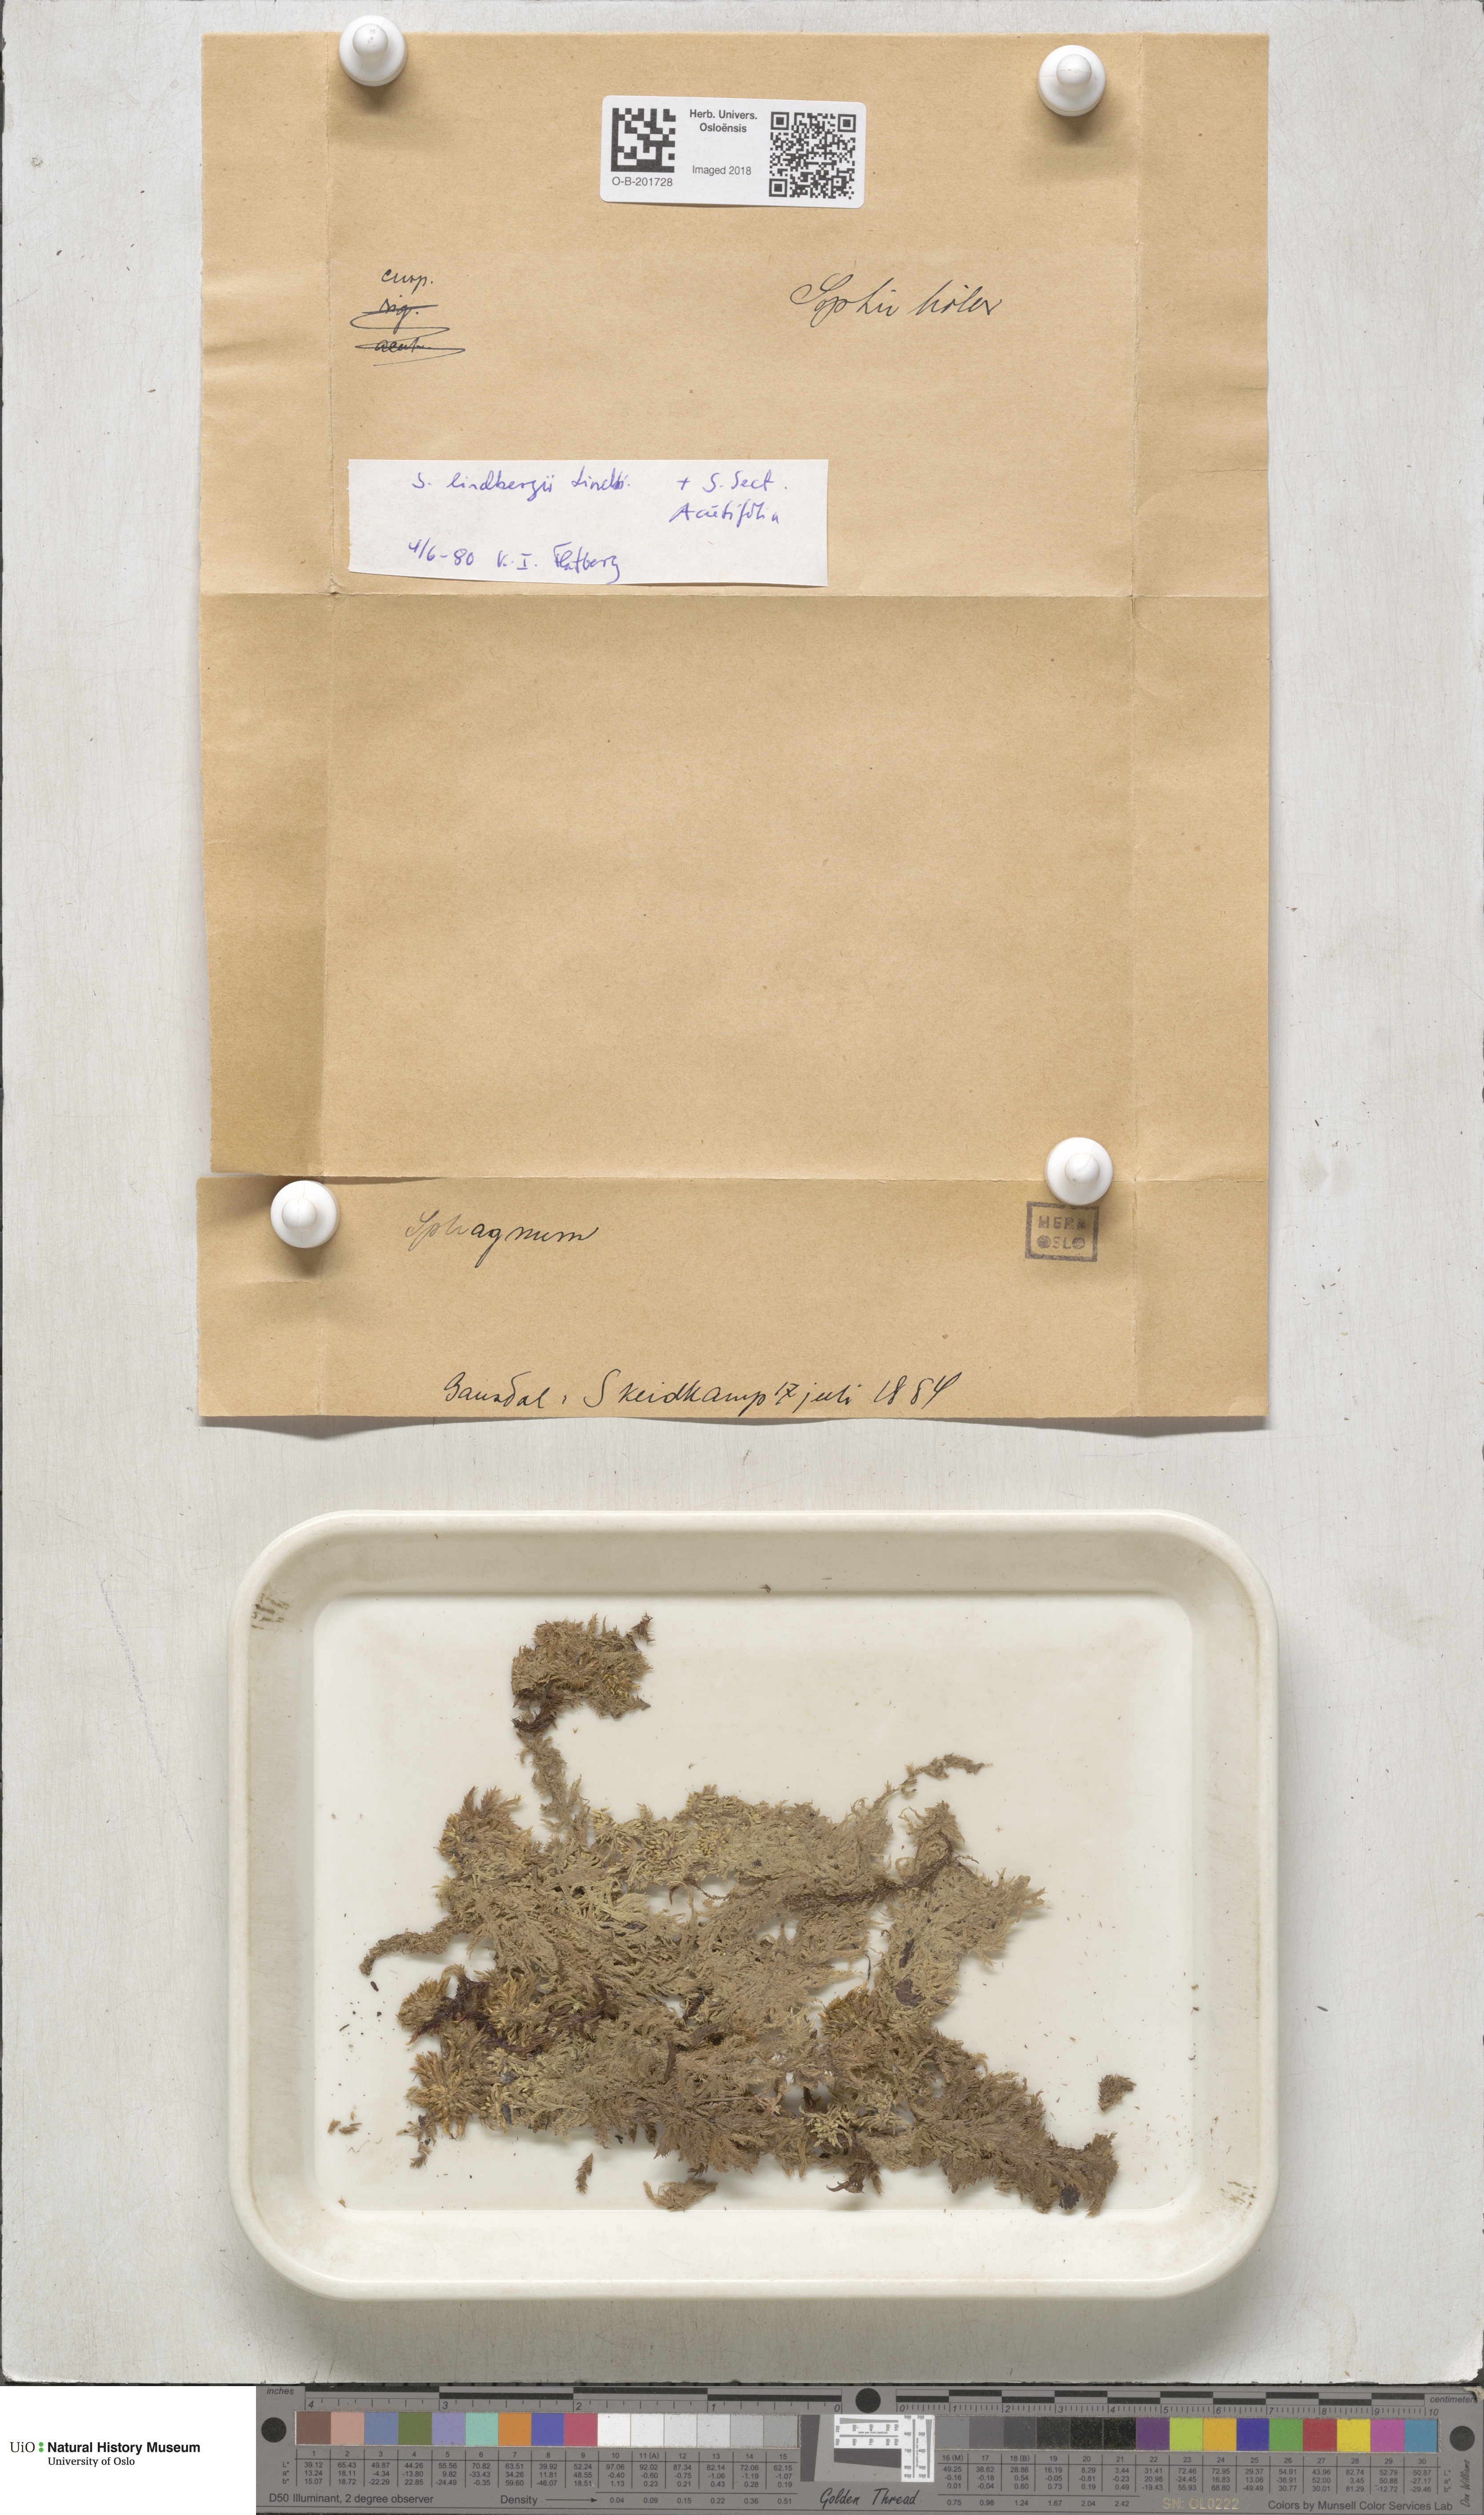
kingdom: Plantae
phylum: Bryophyta
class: Sphagnopsida
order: Sphagnales
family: Sphagnaceae
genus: Sphagnum
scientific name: Sphagnum lindbergii
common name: Lindberg's peat moss
